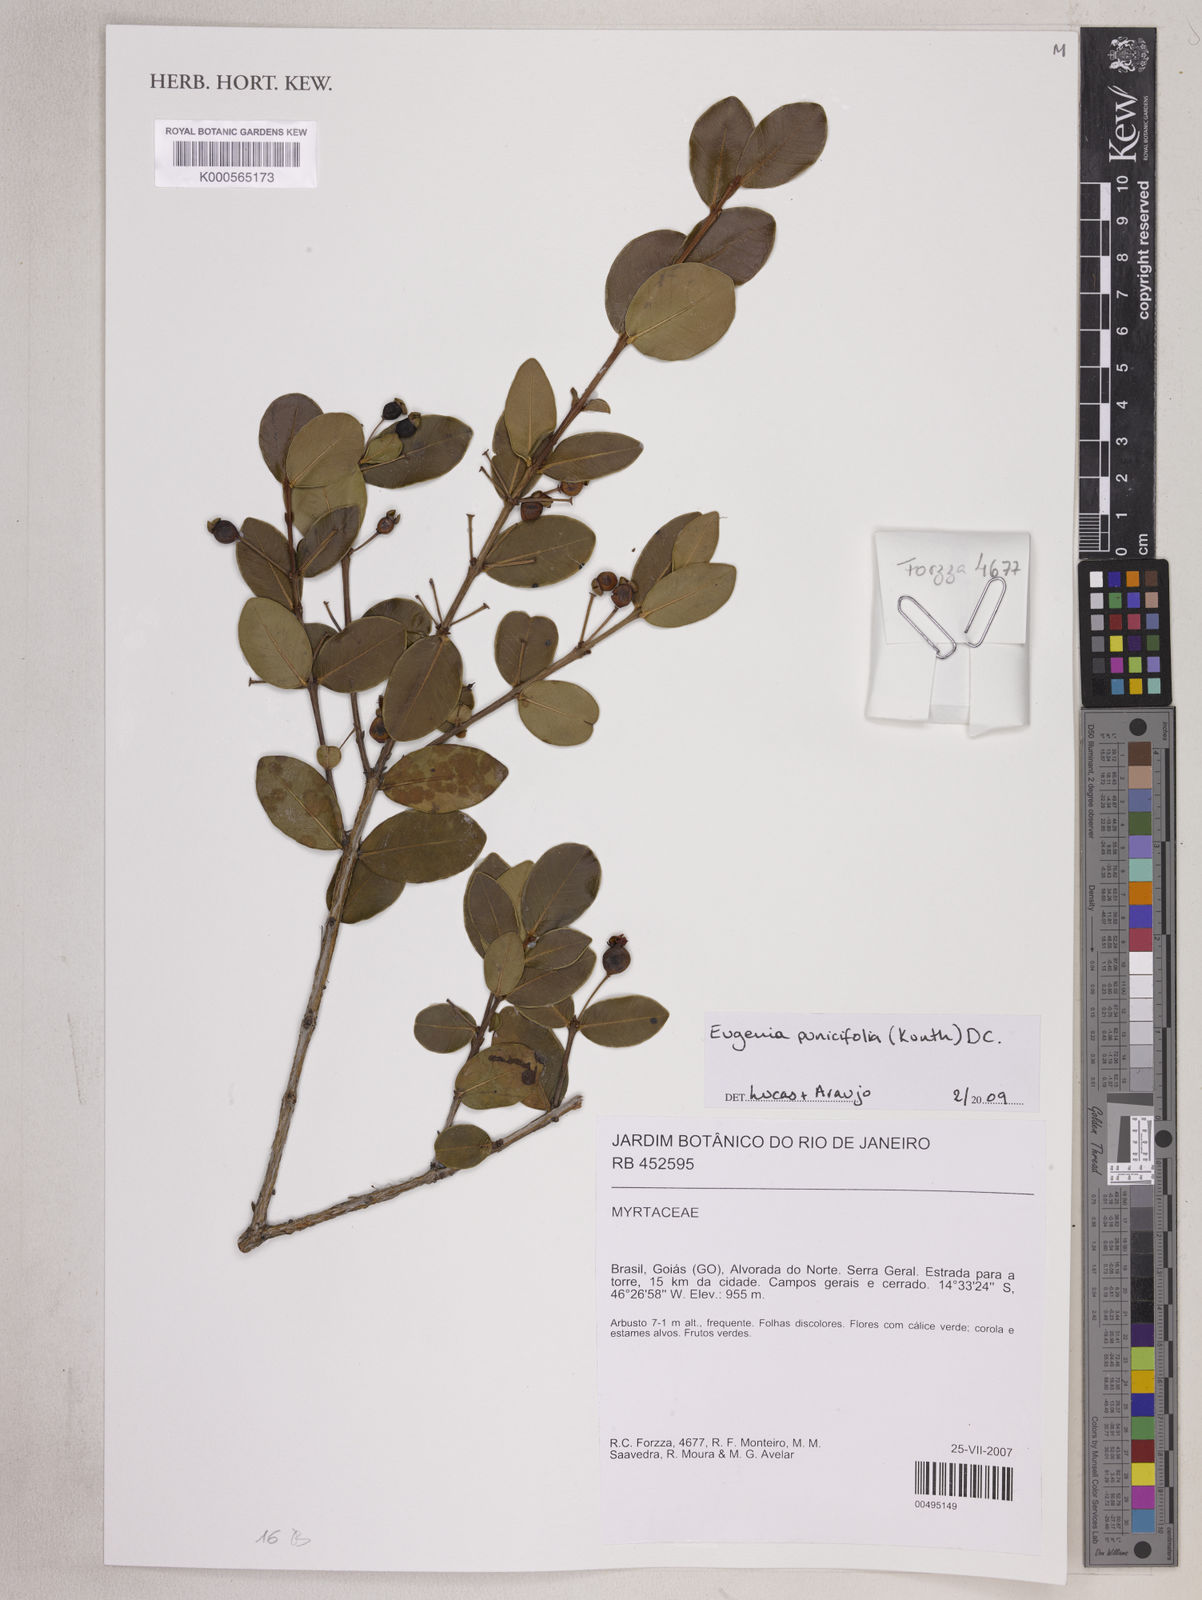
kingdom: Plantae
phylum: Tracheophyta
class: Magnoliopsida
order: Myrtales
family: Myrtaceae
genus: Eugenia
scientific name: Eugenia punicifolia
